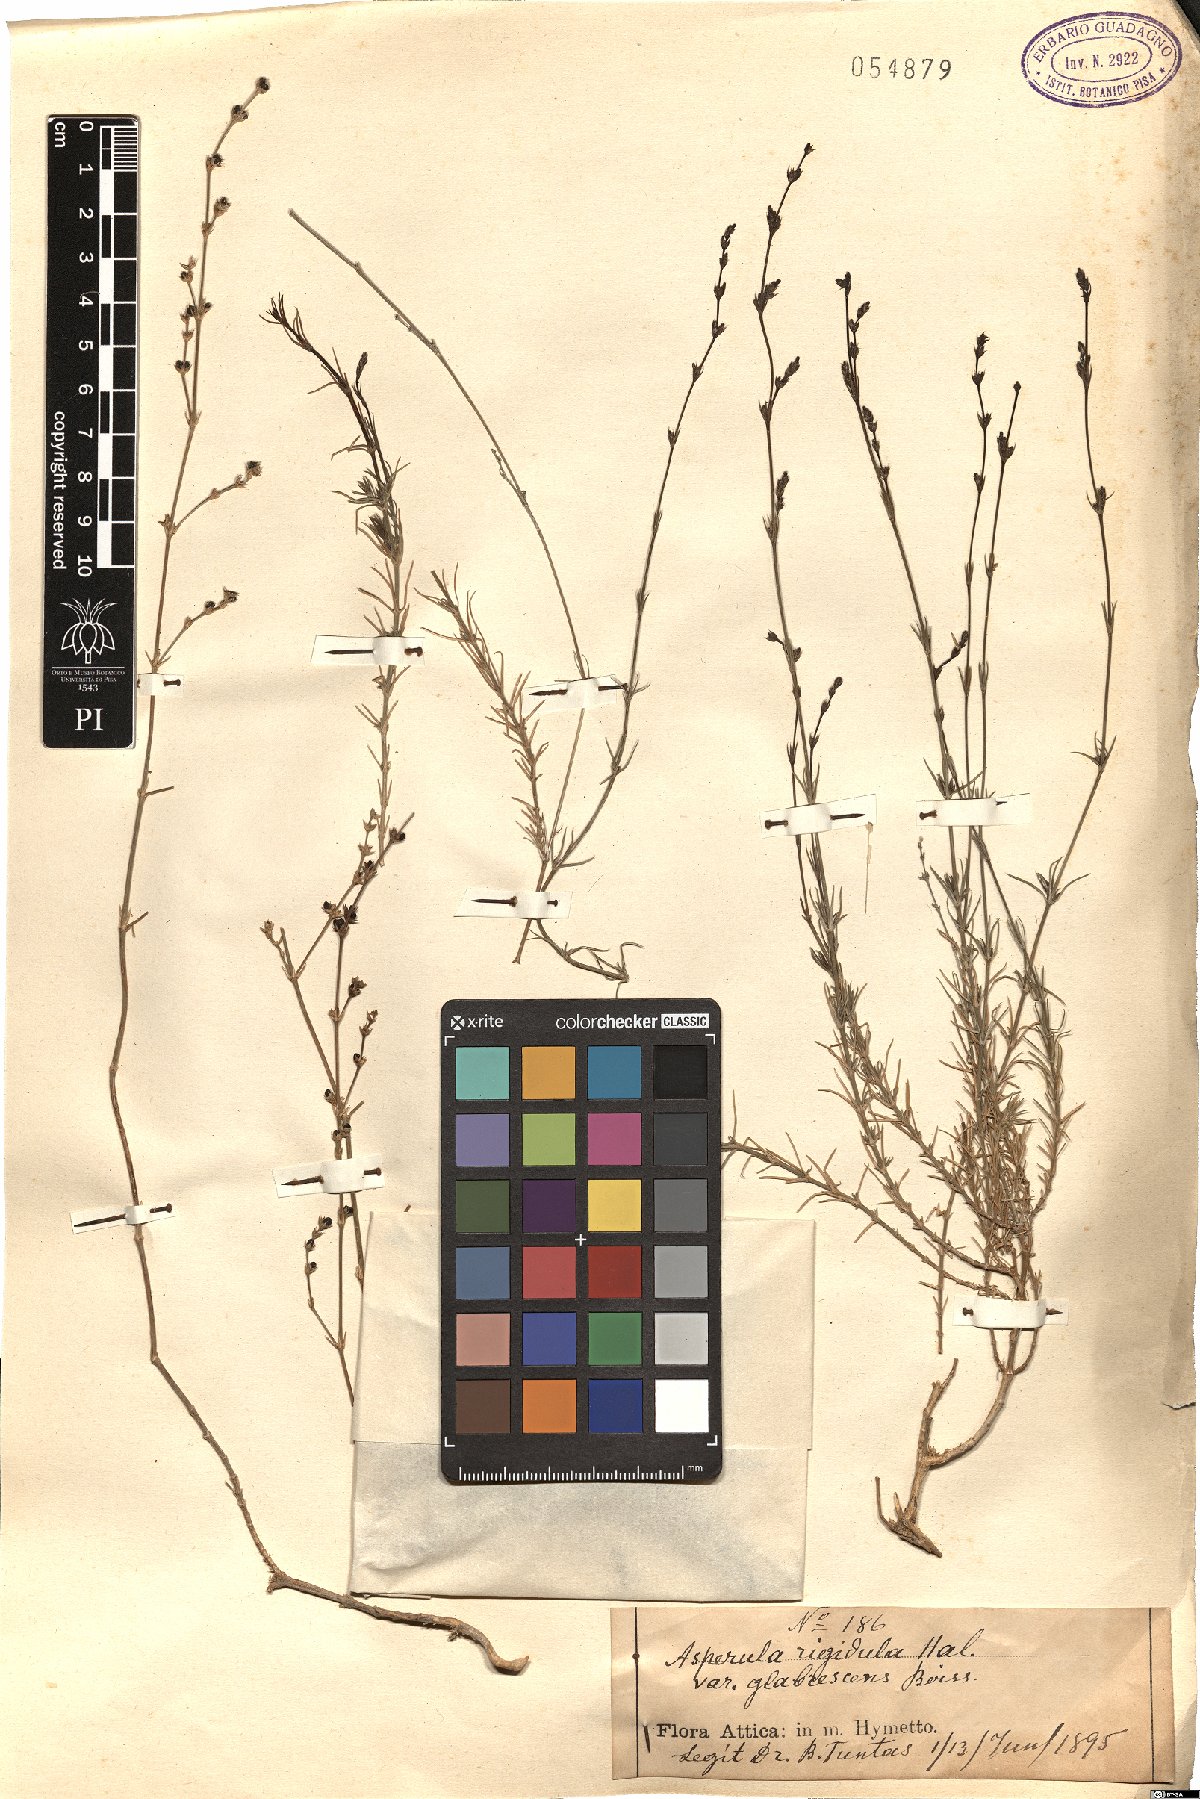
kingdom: Plantae
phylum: Tracheophyta
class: Magnoliopsida
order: Gentianales
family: Rubiaceae
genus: Cynanchica
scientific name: Cynanchica rigidula
